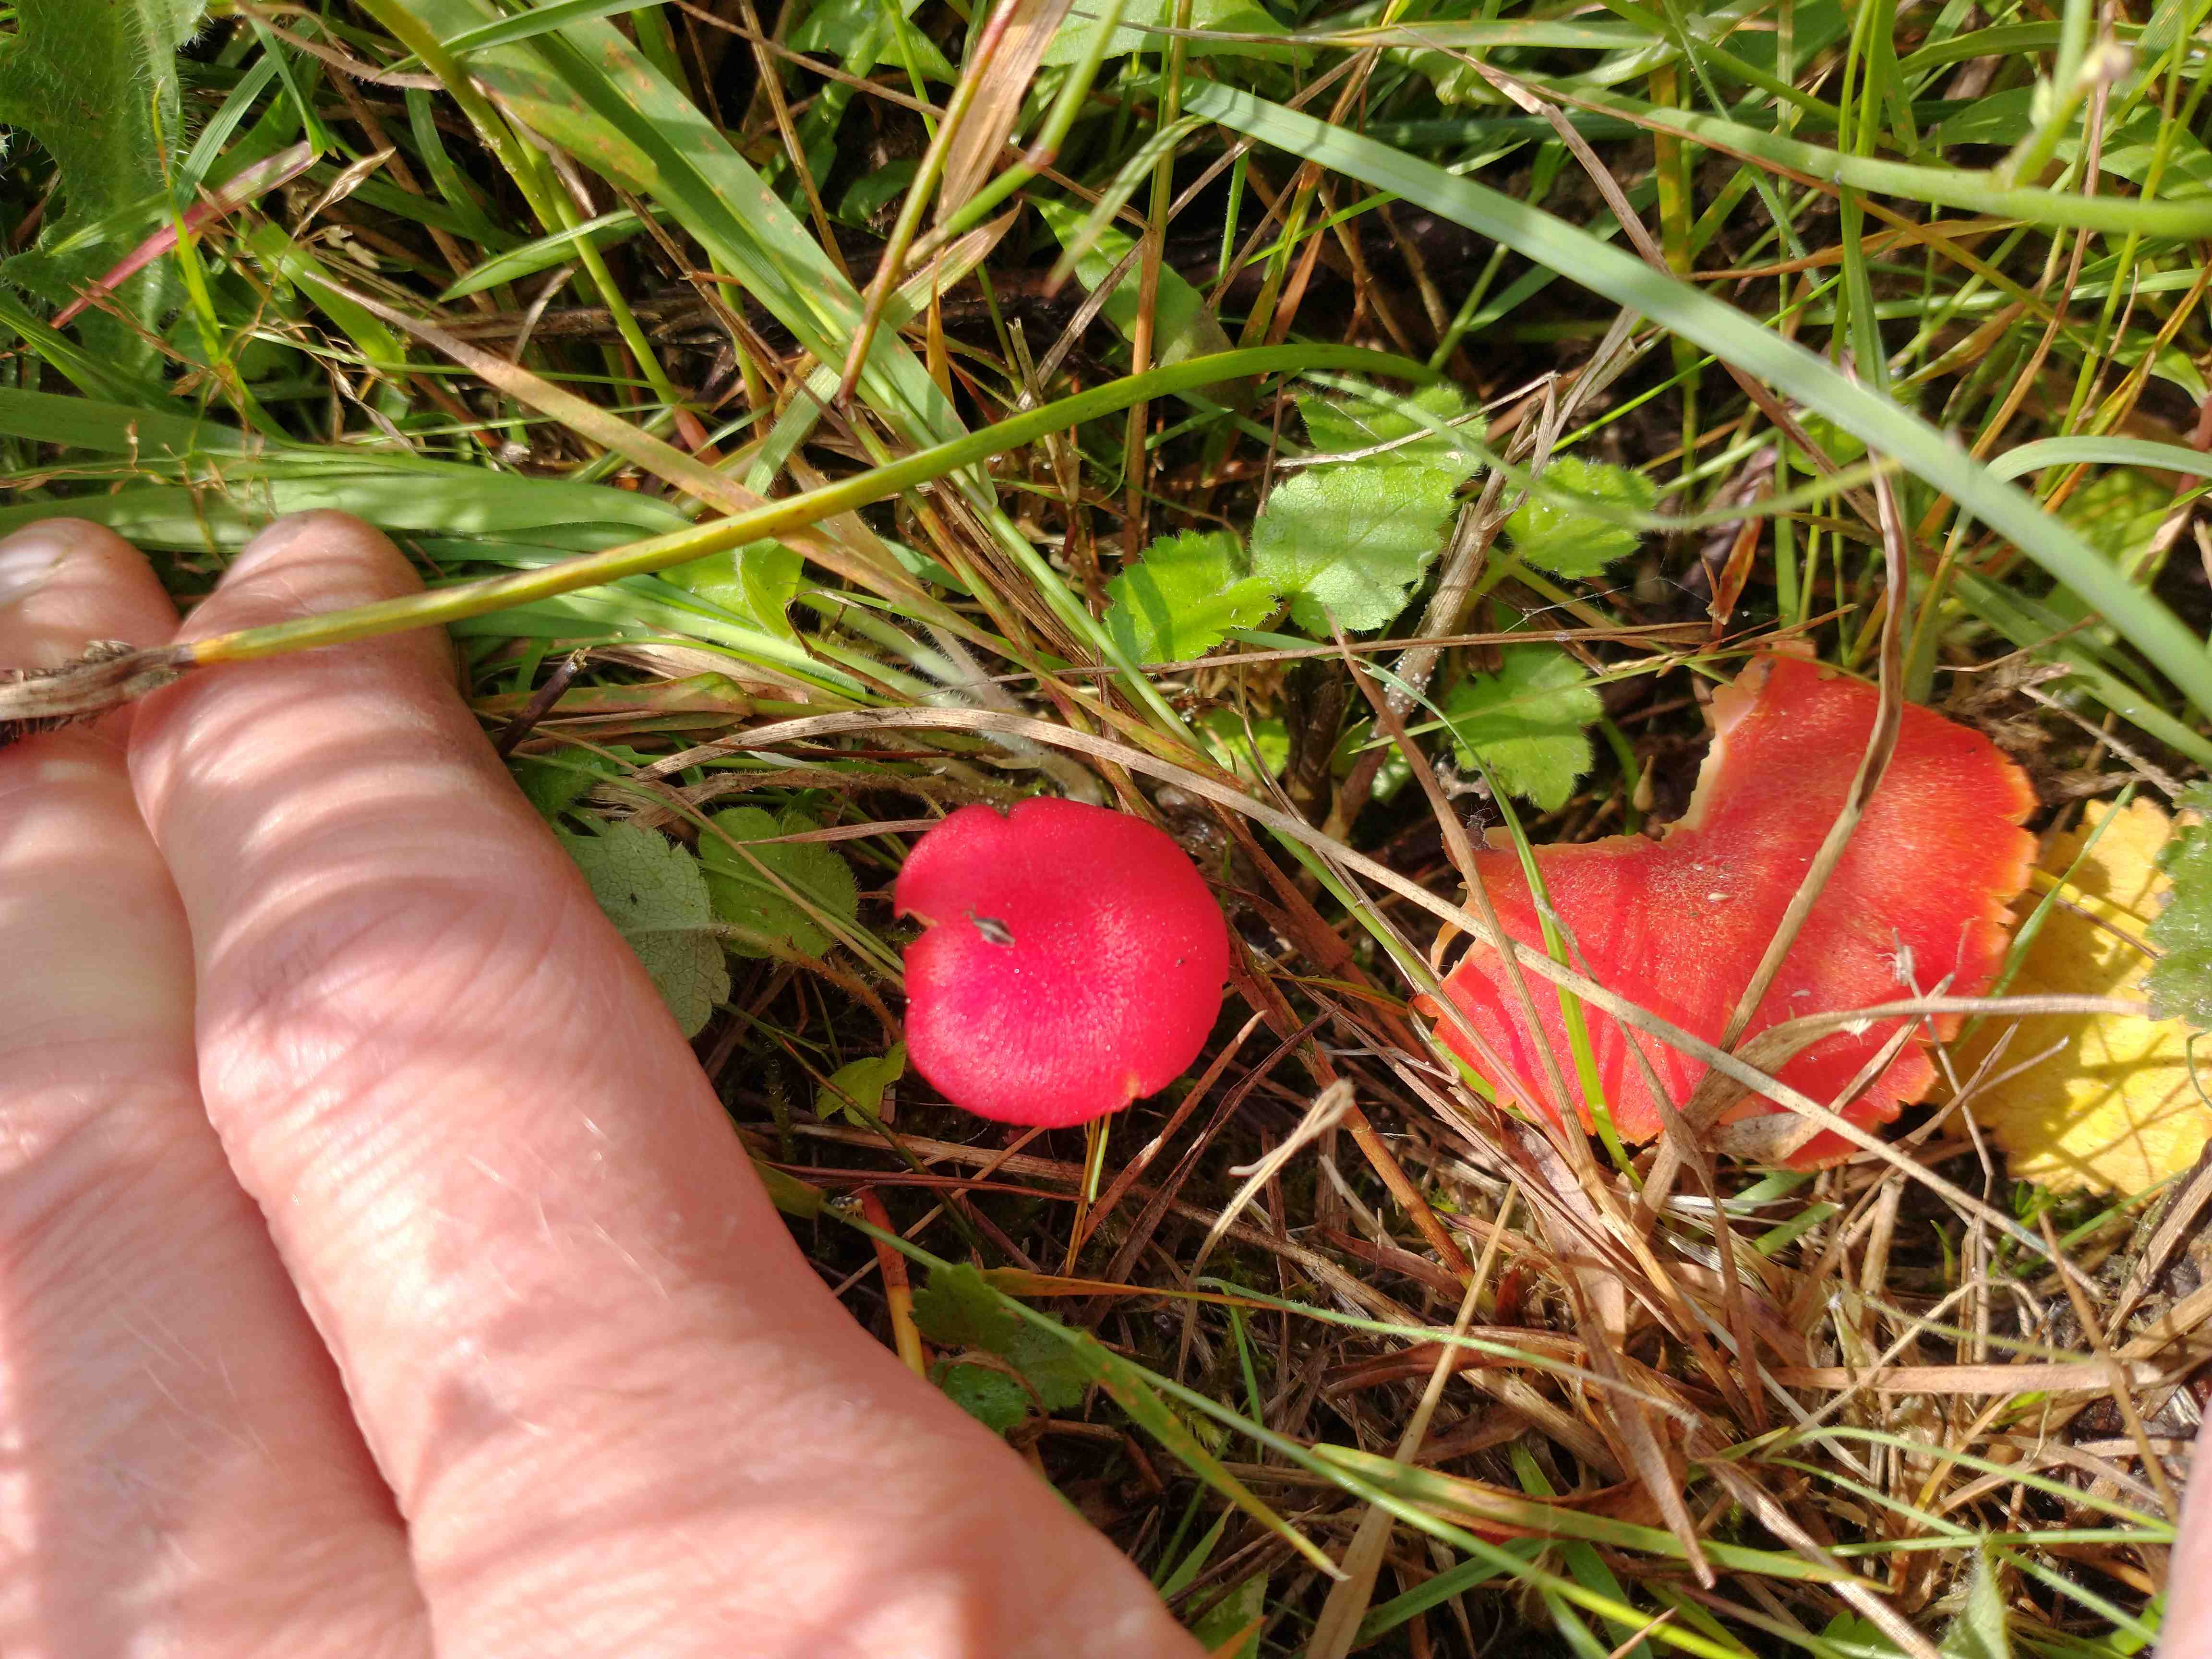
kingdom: Fungi
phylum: Basidiomycota
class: Agaricomycetes
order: Agaricales
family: Hygrophoraceae
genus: Hygrocybe
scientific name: Hygrocybe helobia
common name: hvidløgs-vokshat
